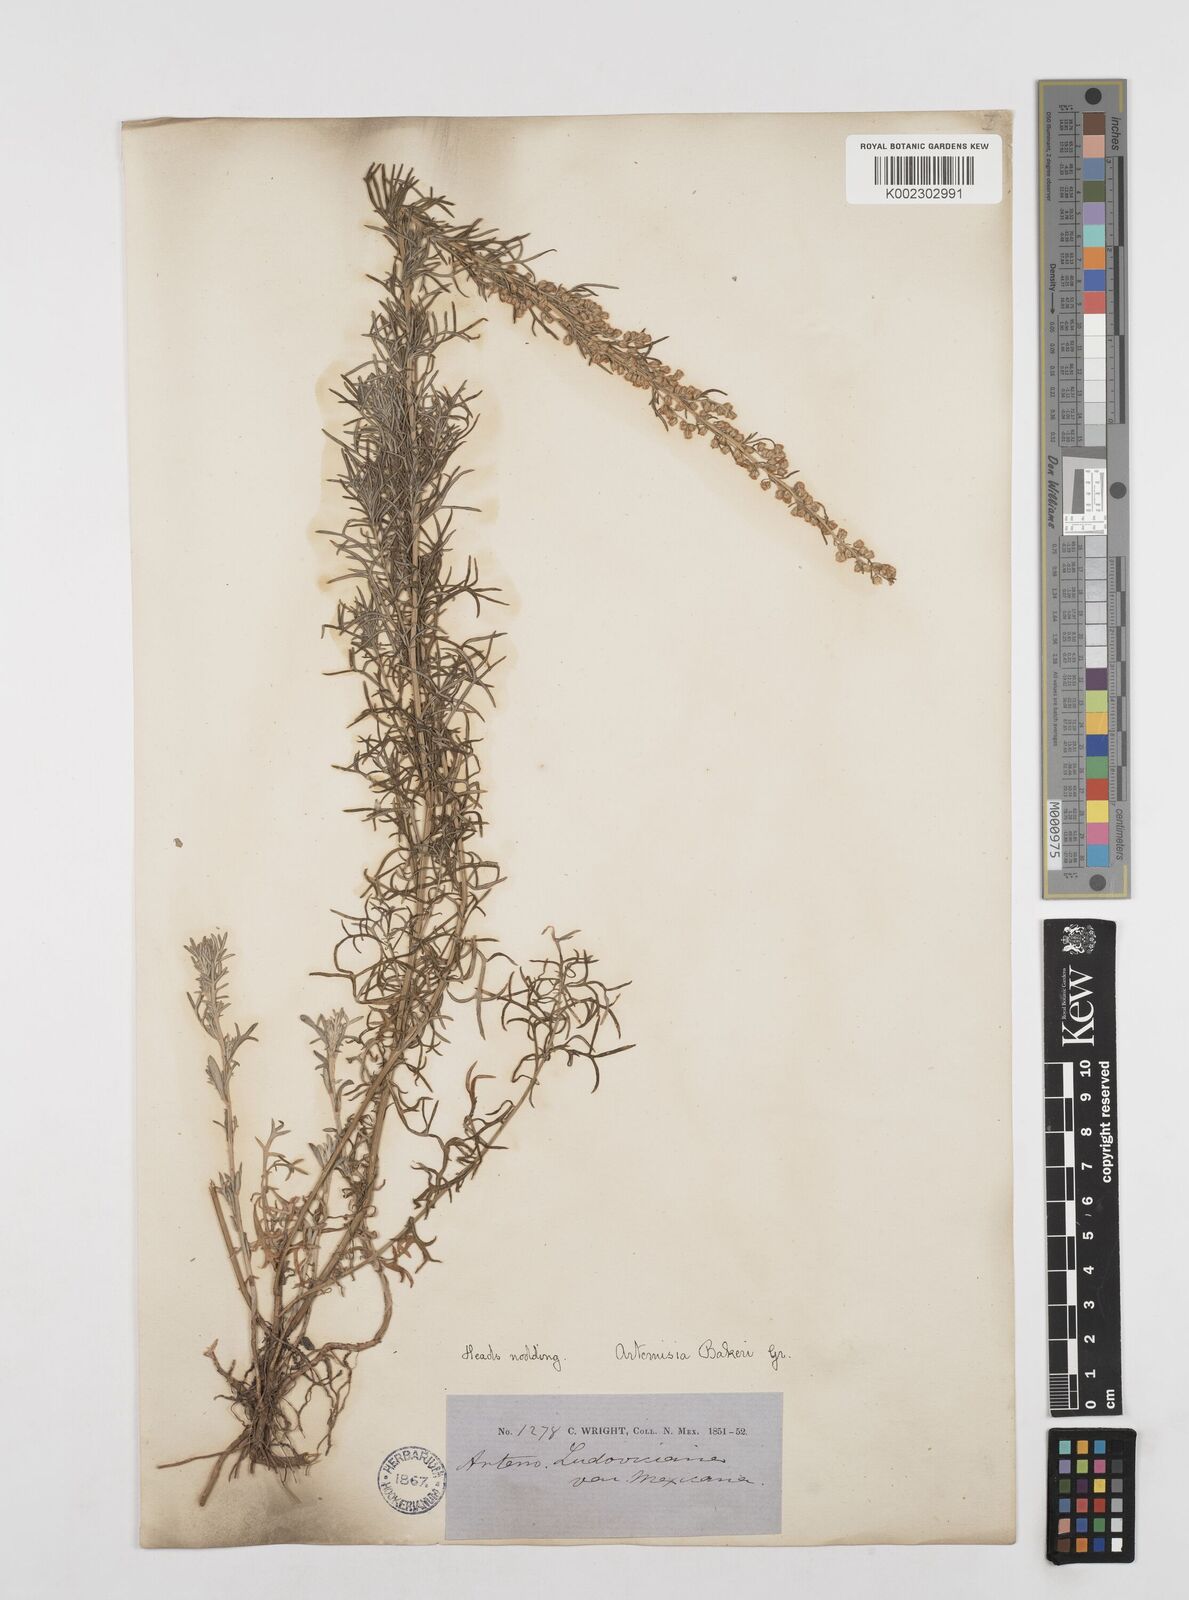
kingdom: Plantae
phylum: Tracheophyta
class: Magnoliopsida
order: Asterales
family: Asteraceae
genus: Artemisia
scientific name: Artemisia michauxiana
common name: Lemon sagewort
